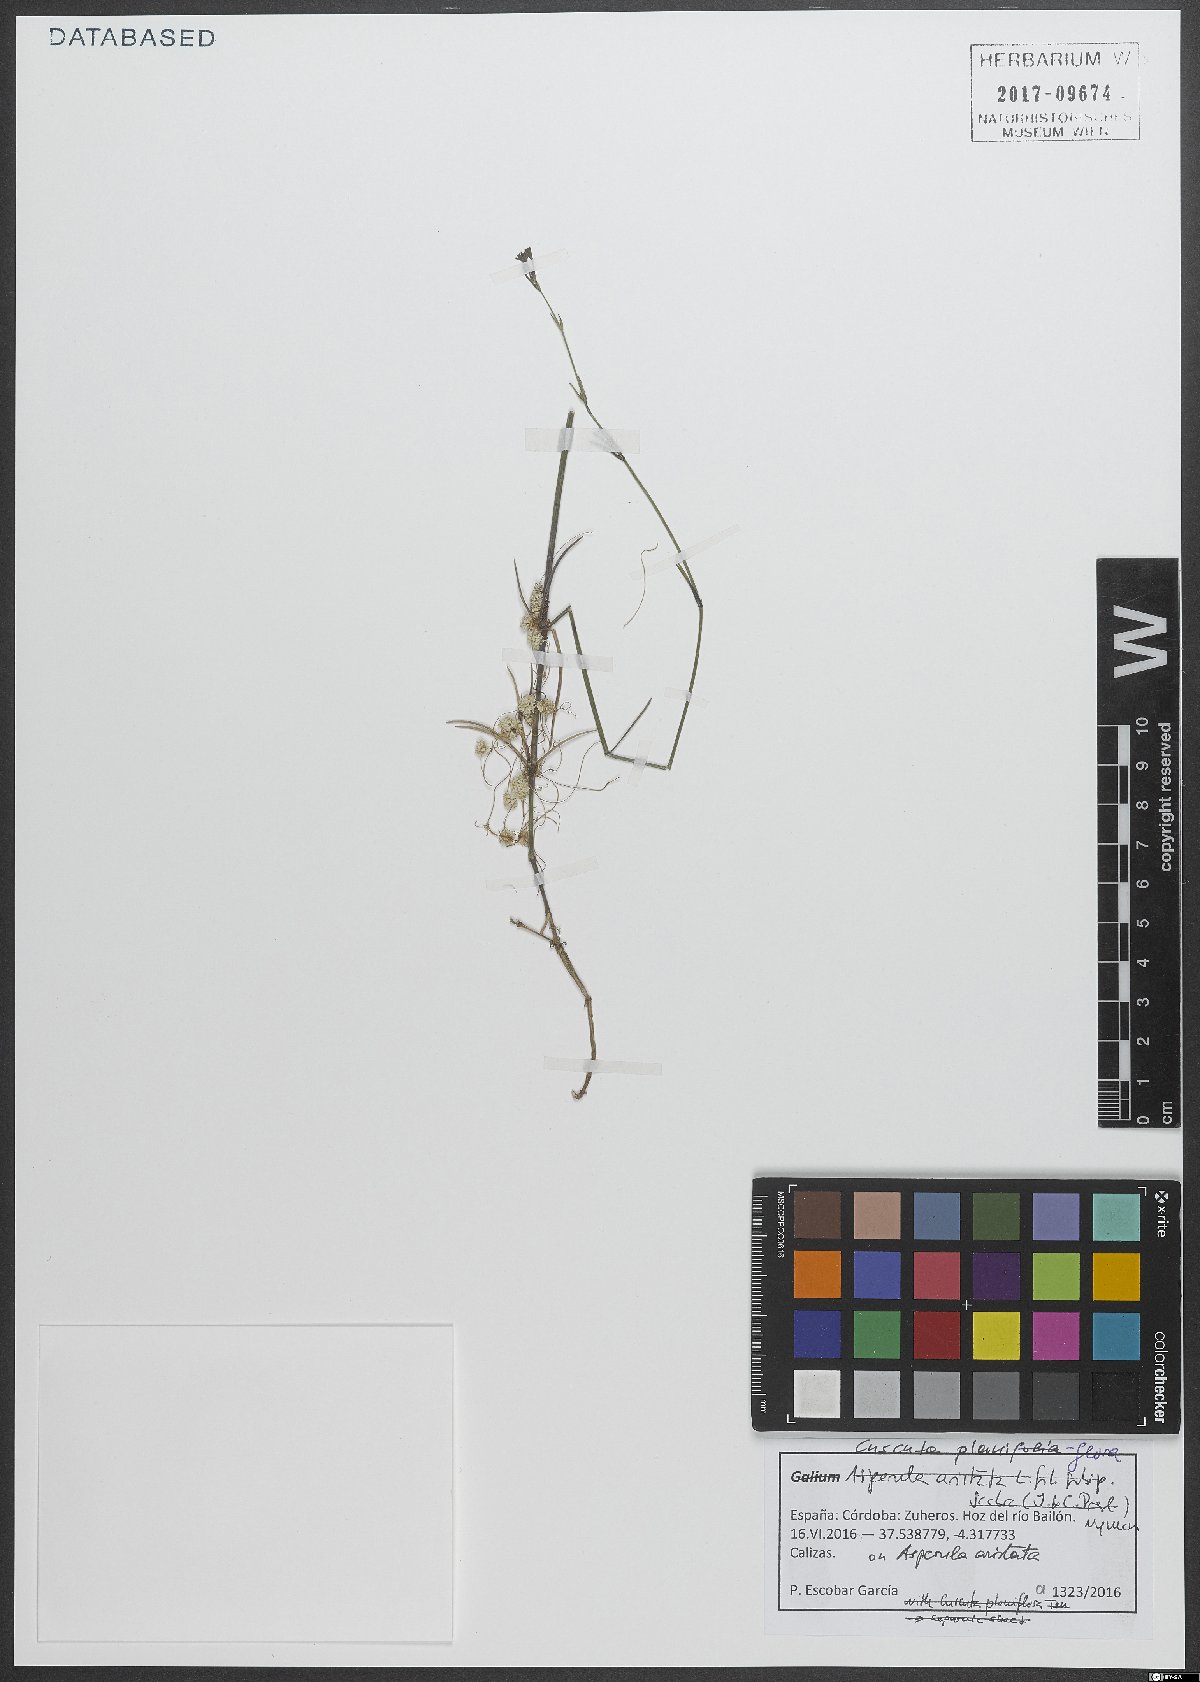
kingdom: Plantae
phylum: Tracheophyta
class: Magnoliopsida
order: Solanales
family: Convolvulaceae
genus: Cuscuta
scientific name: Cuscuta planiflora
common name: Small-seed alfalfa dodder
